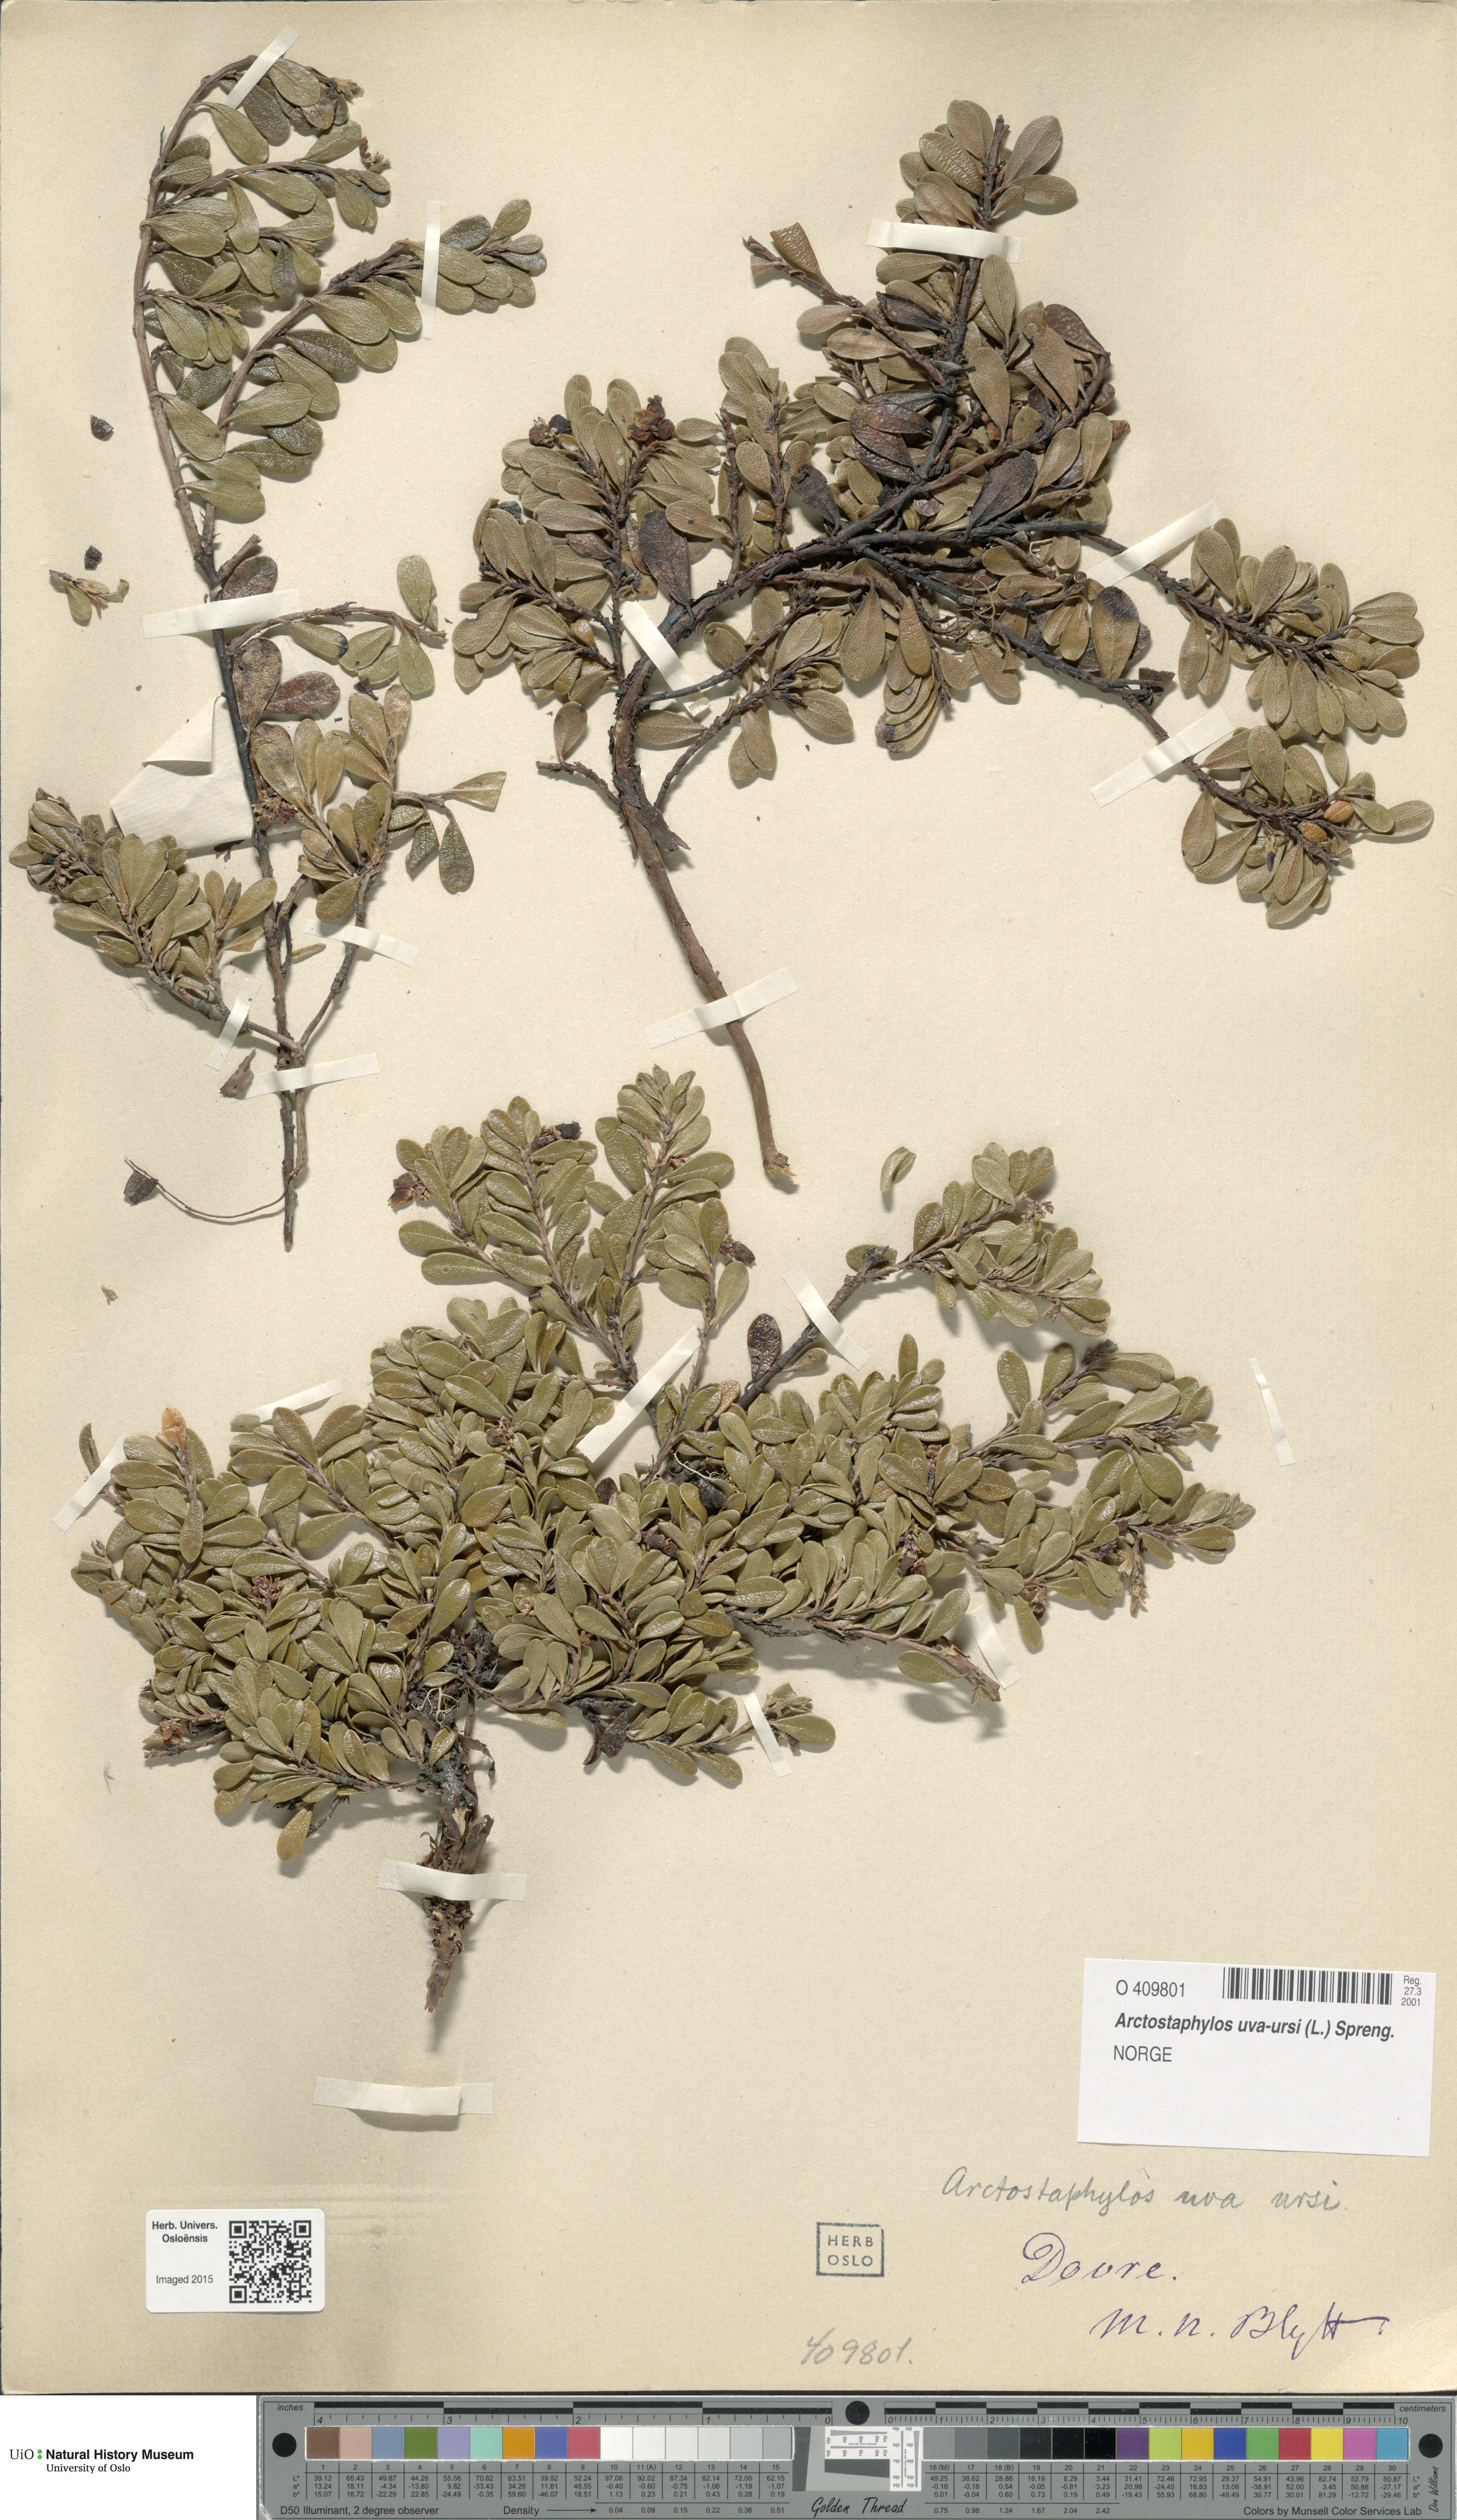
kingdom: Plantae
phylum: Tracheophyta
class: Magnoliopsida
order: Ericales
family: Ericaceae
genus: Arctostaphylos
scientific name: Arctostaphylos uva-ursi
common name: Bearberry
